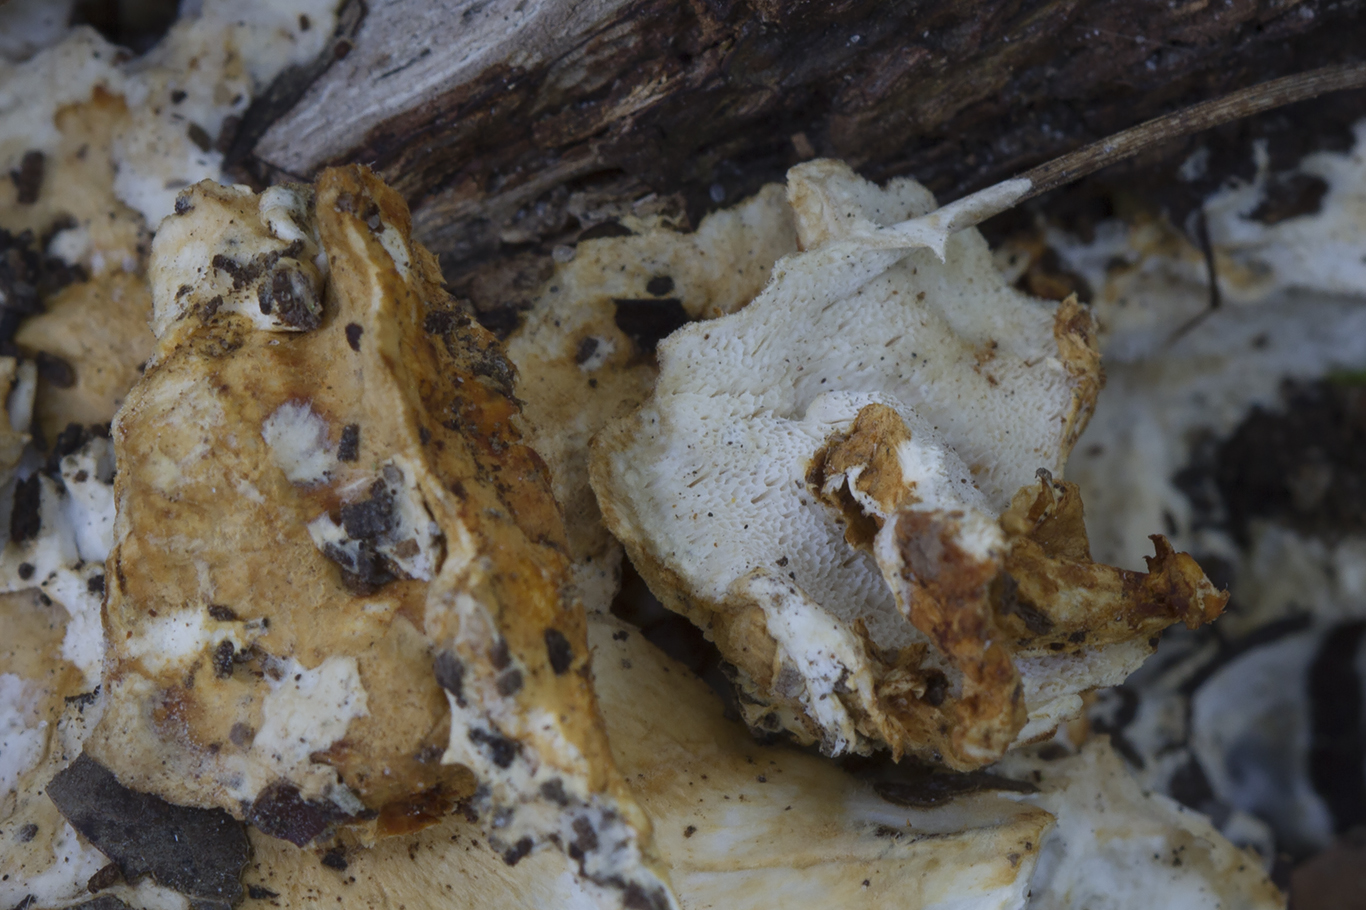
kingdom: Fungi
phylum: Basidiomycota
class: Agaricomycetes
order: Polyporales
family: Steccherinaceae
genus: Loweomyces
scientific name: Loweomyces wynneae
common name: krybende blødporesvamp
